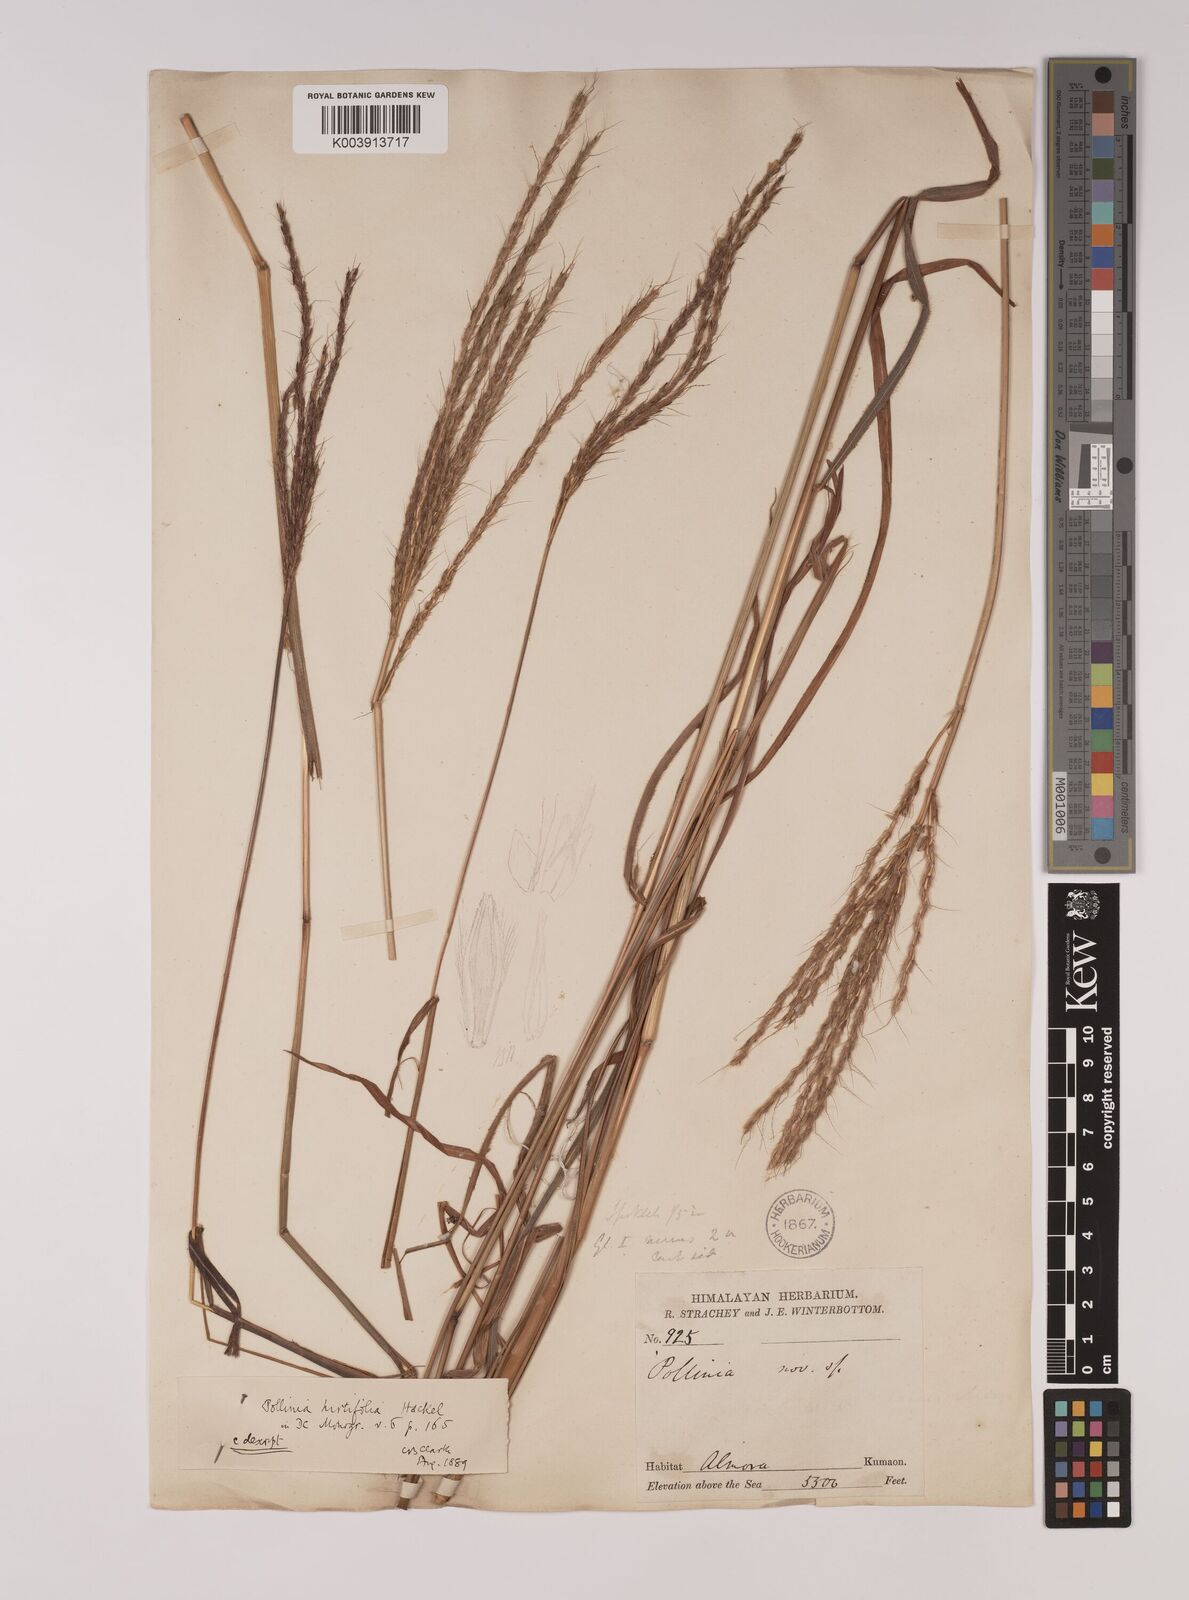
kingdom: Plantae
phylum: Tracheophyta
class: Liliopsida
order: Poales
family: Poaceae
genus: Eulalia
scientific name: Eulalia hirtifolia
